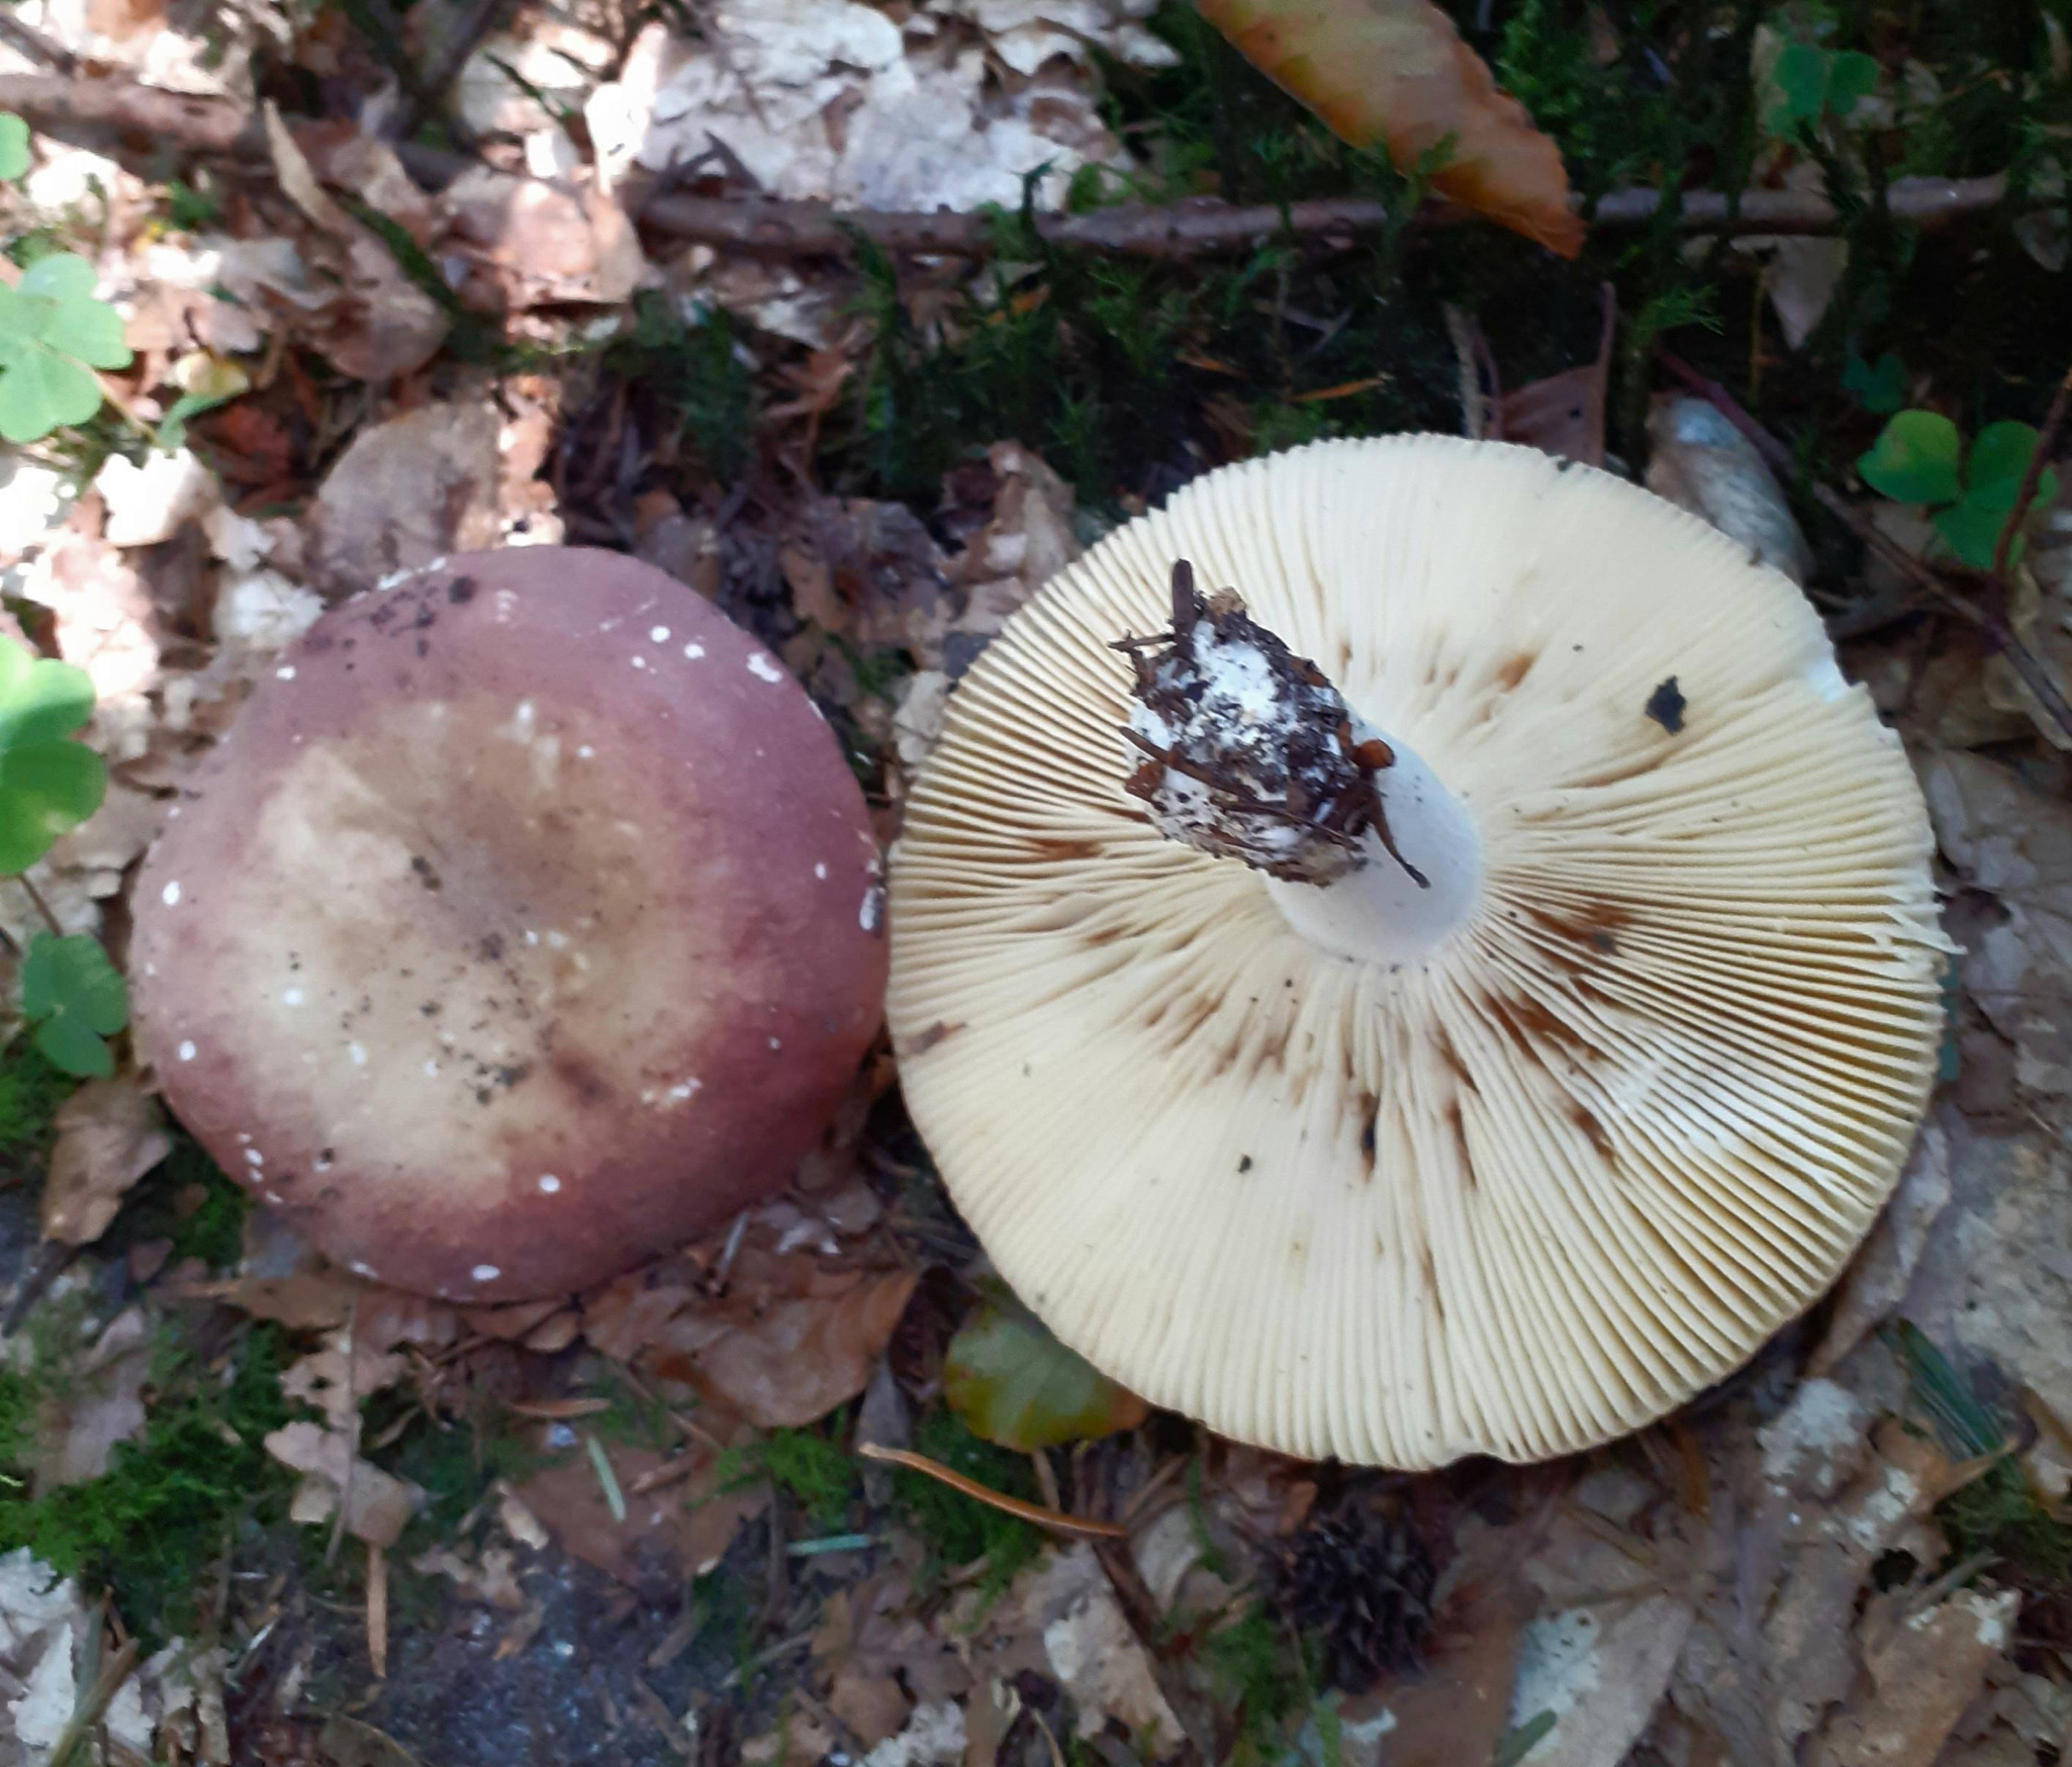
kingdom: Fungi
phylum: Basidiomycota
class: Agaricomycetes
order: Russulales
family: Russulaceae
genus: Russula
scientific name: Russula romellii
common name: romells skørhat
